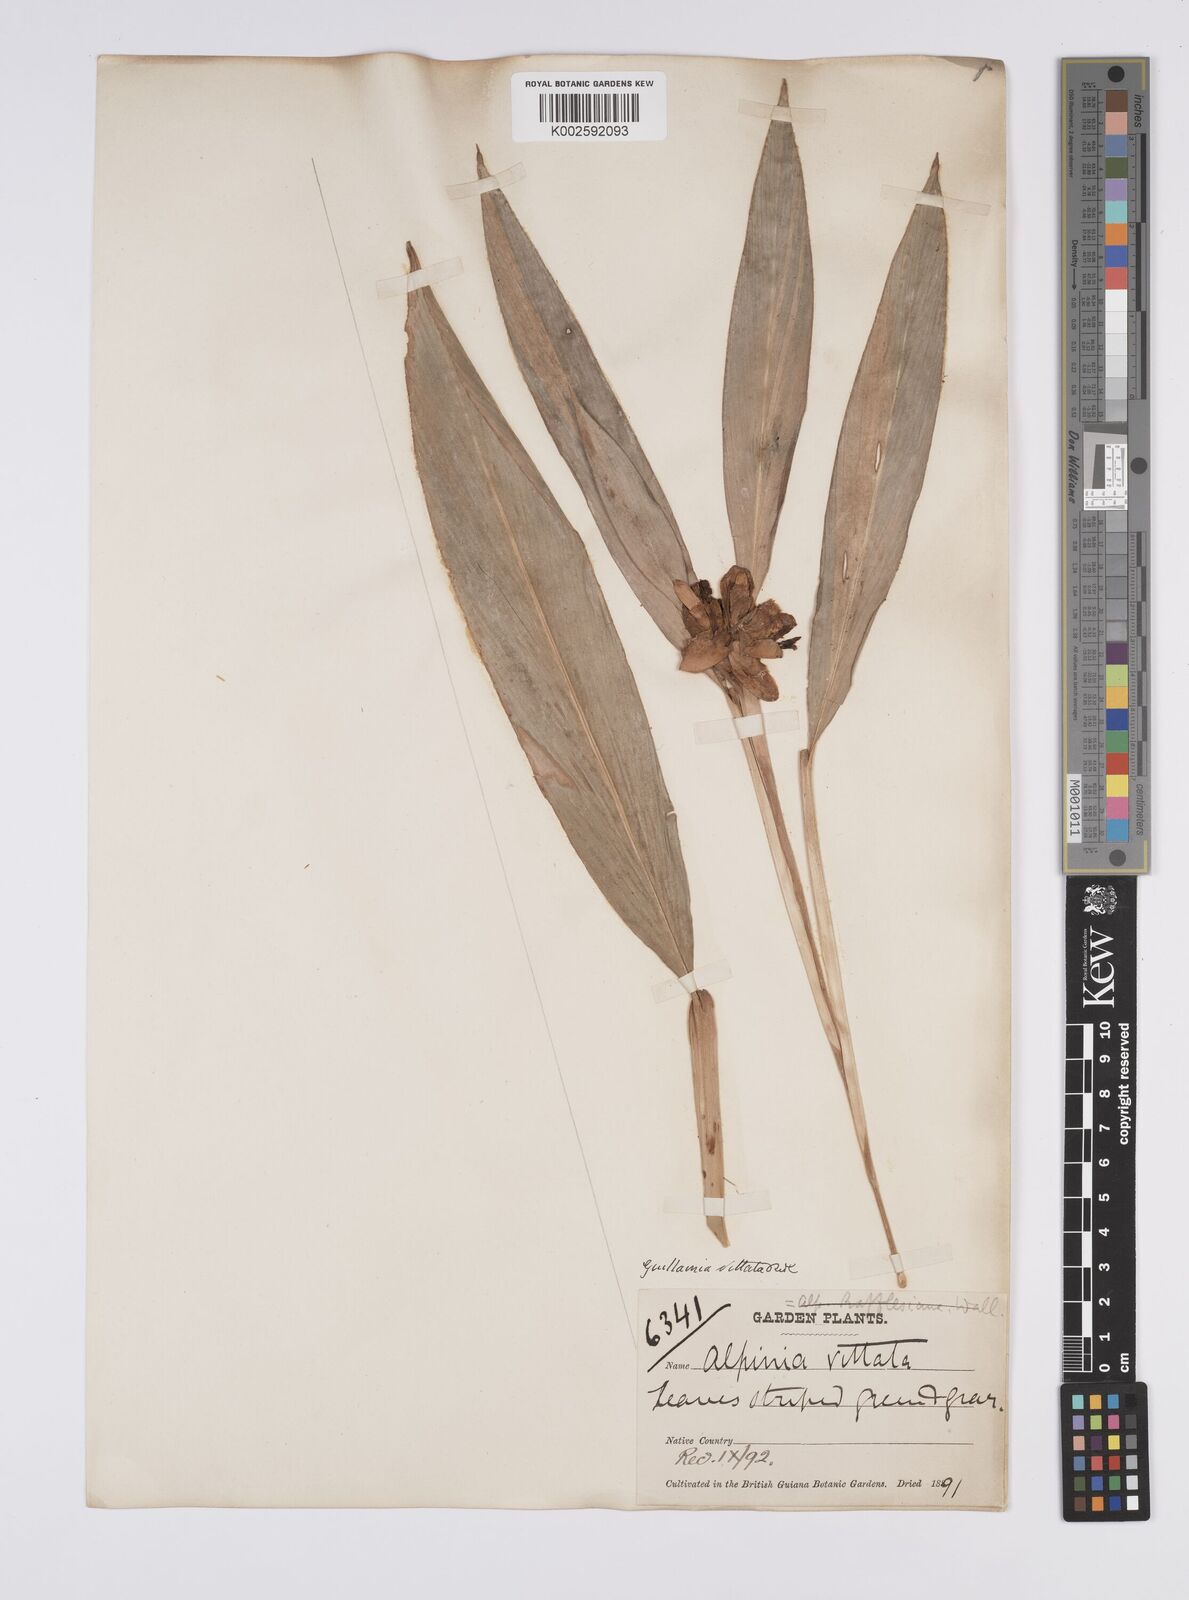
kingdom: Plantae
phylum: Tracheophyta
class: Liliopsida
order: Zingiberales
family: Zingiberaceae
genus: Alpinia
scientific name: Alpinia
